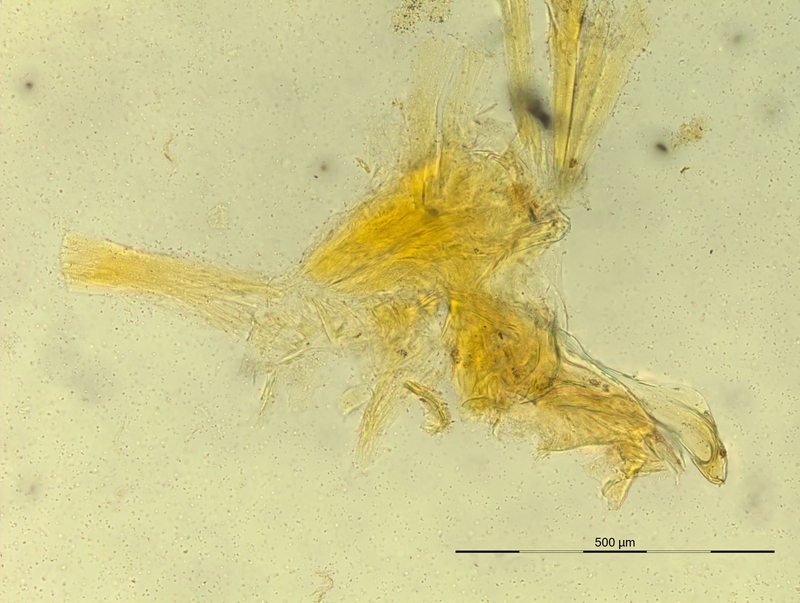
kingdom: Animalia
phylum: Arthropoda
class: Diplopoda
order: Chordeumatida
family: Craspedosomatidae
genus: Oroposoma
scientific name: Oroposoma catascaphium
